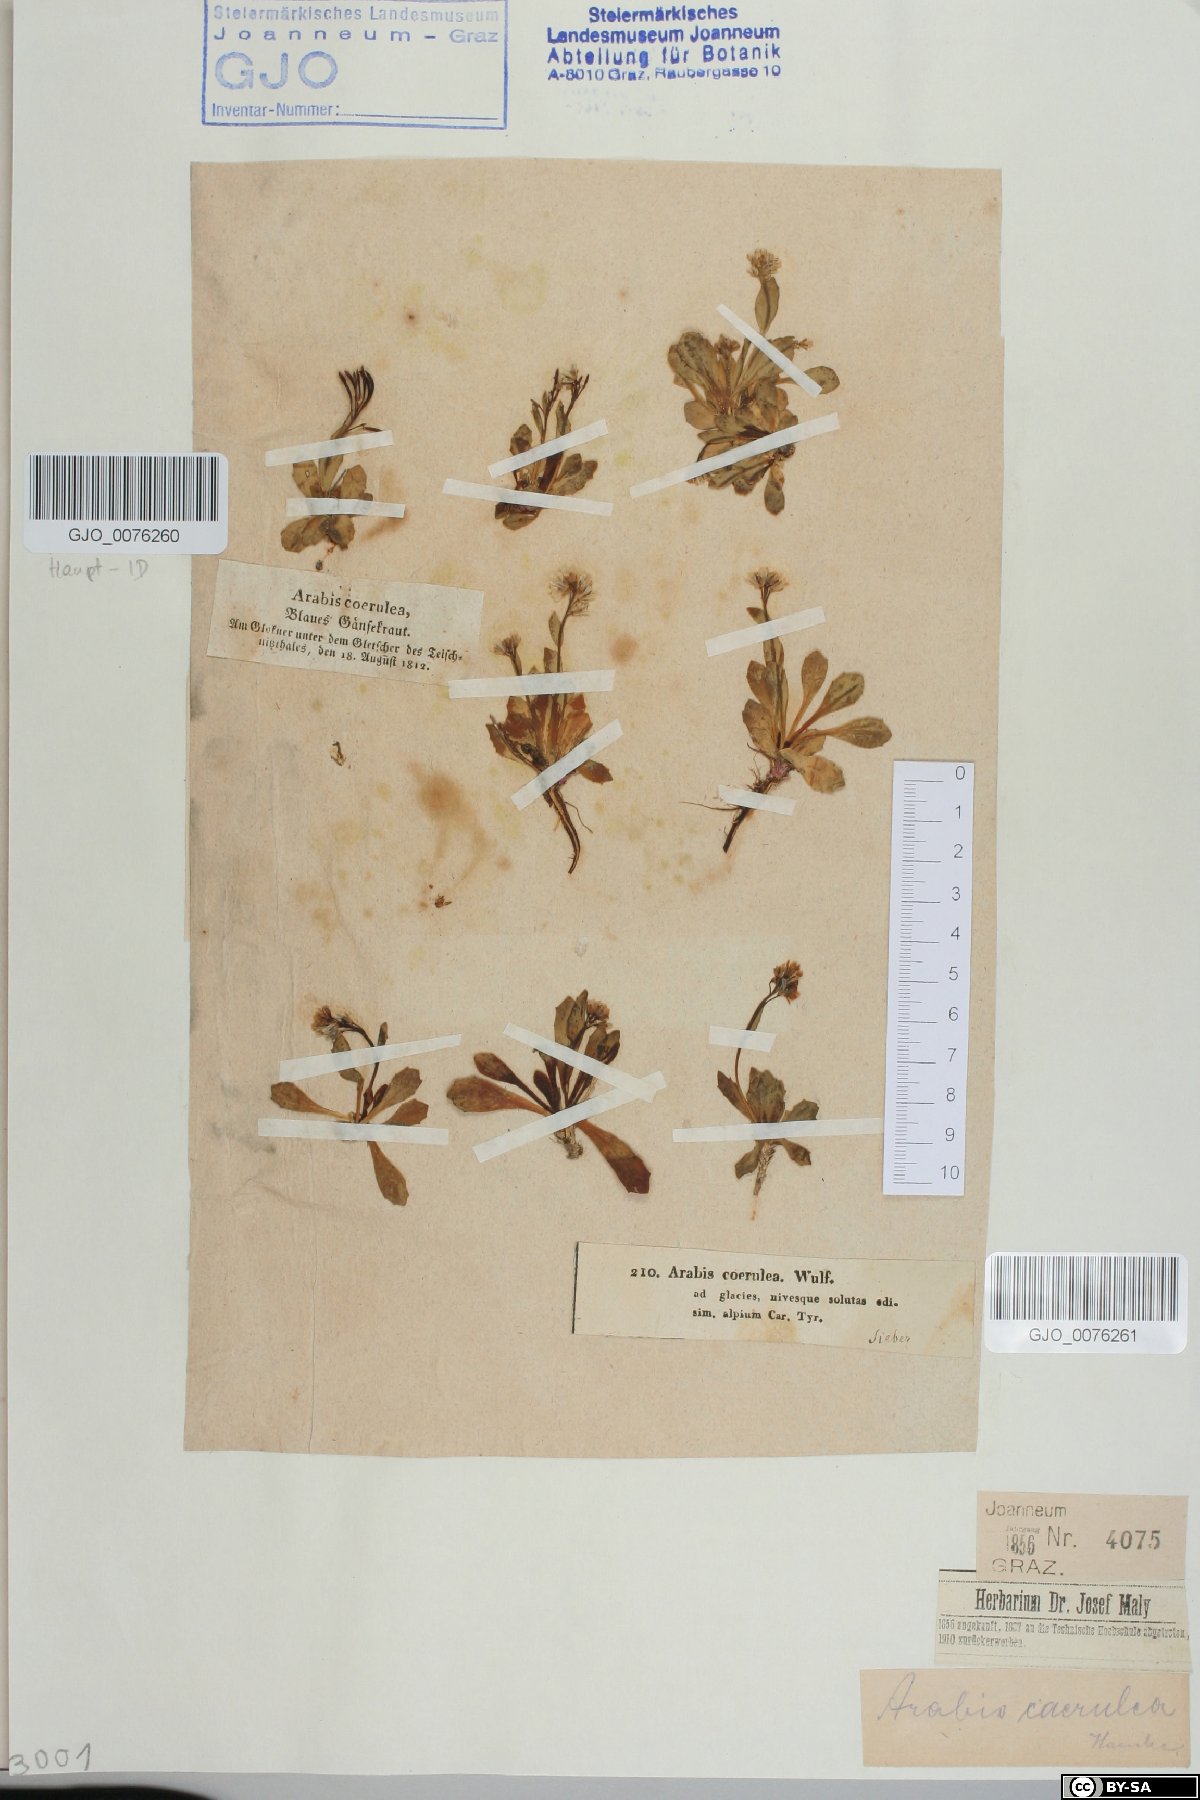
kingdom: Plantae
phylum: Tracheophyta
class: Magnoliopsida
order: Brassicales
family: Brassicaceae
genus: Arabis
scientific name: Arabis caerulea
